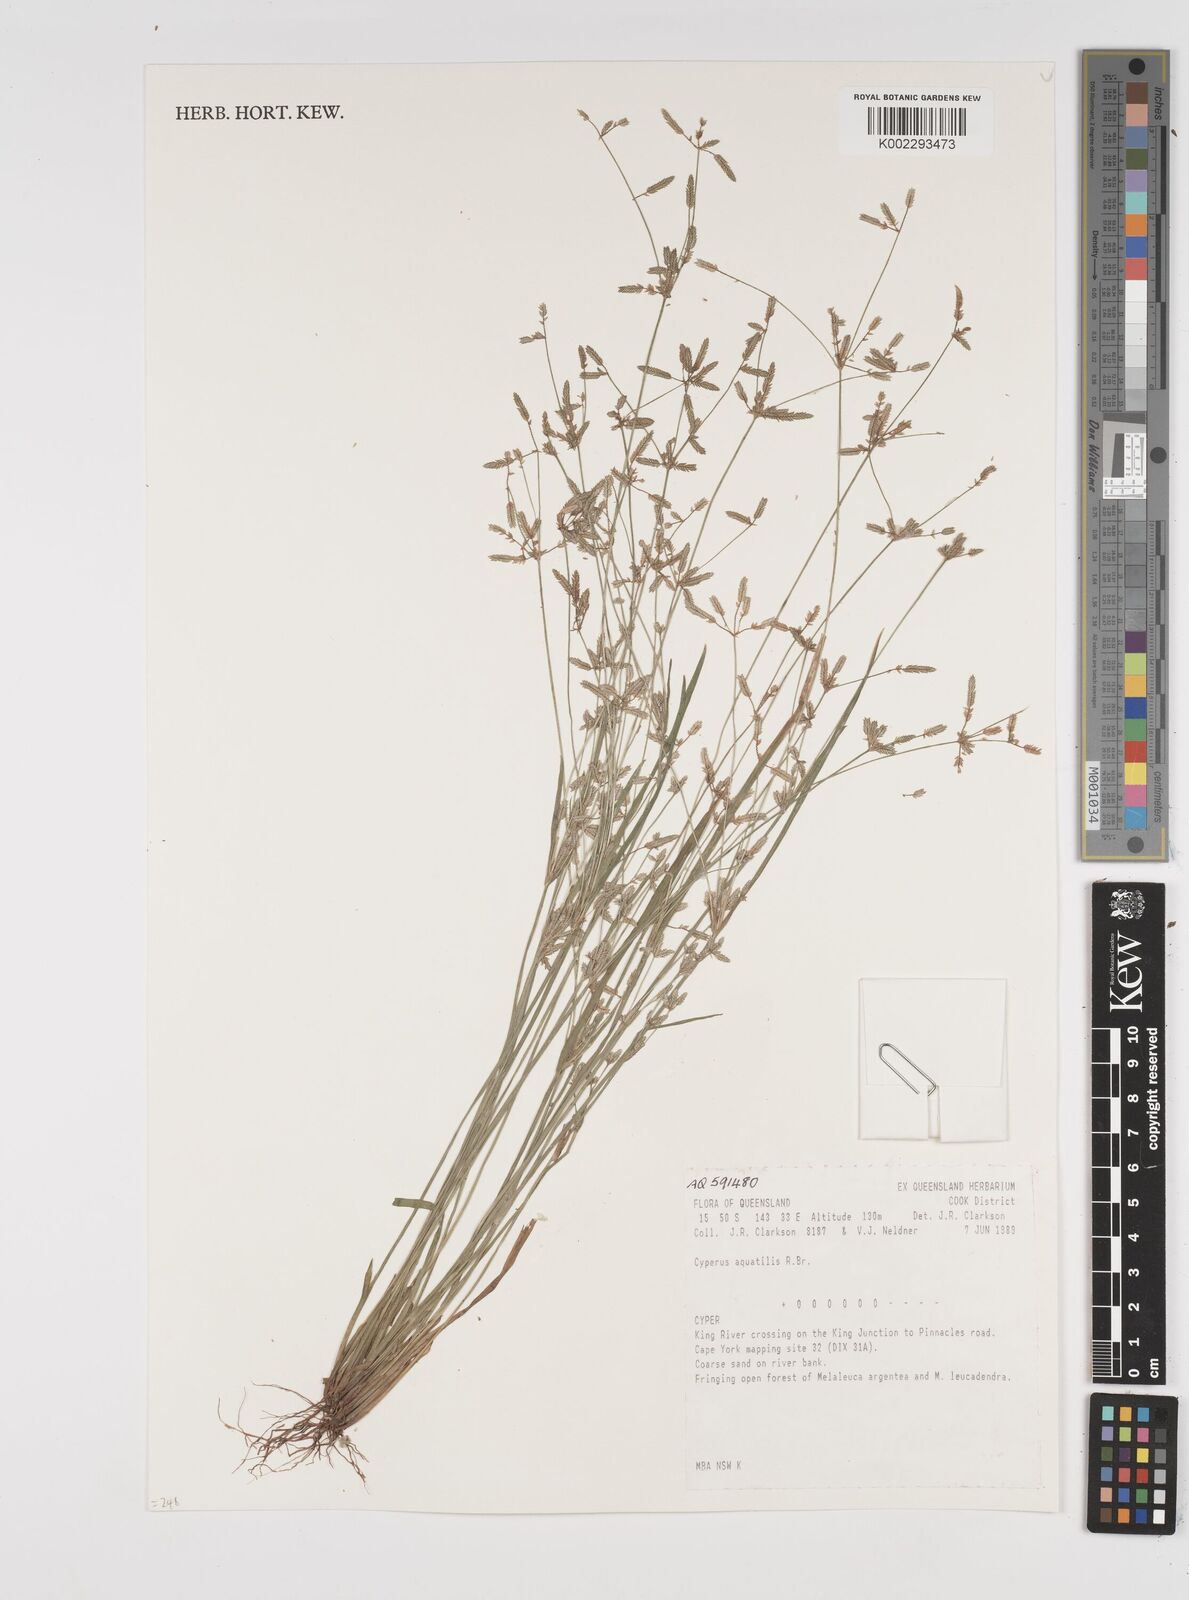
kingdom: Plantae
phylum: Tracheophyta
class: Liliopsida
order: Poales
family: Cyperaceae
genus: Cyperus
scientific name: Cyperus trinervis
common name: Australian flatsedge
